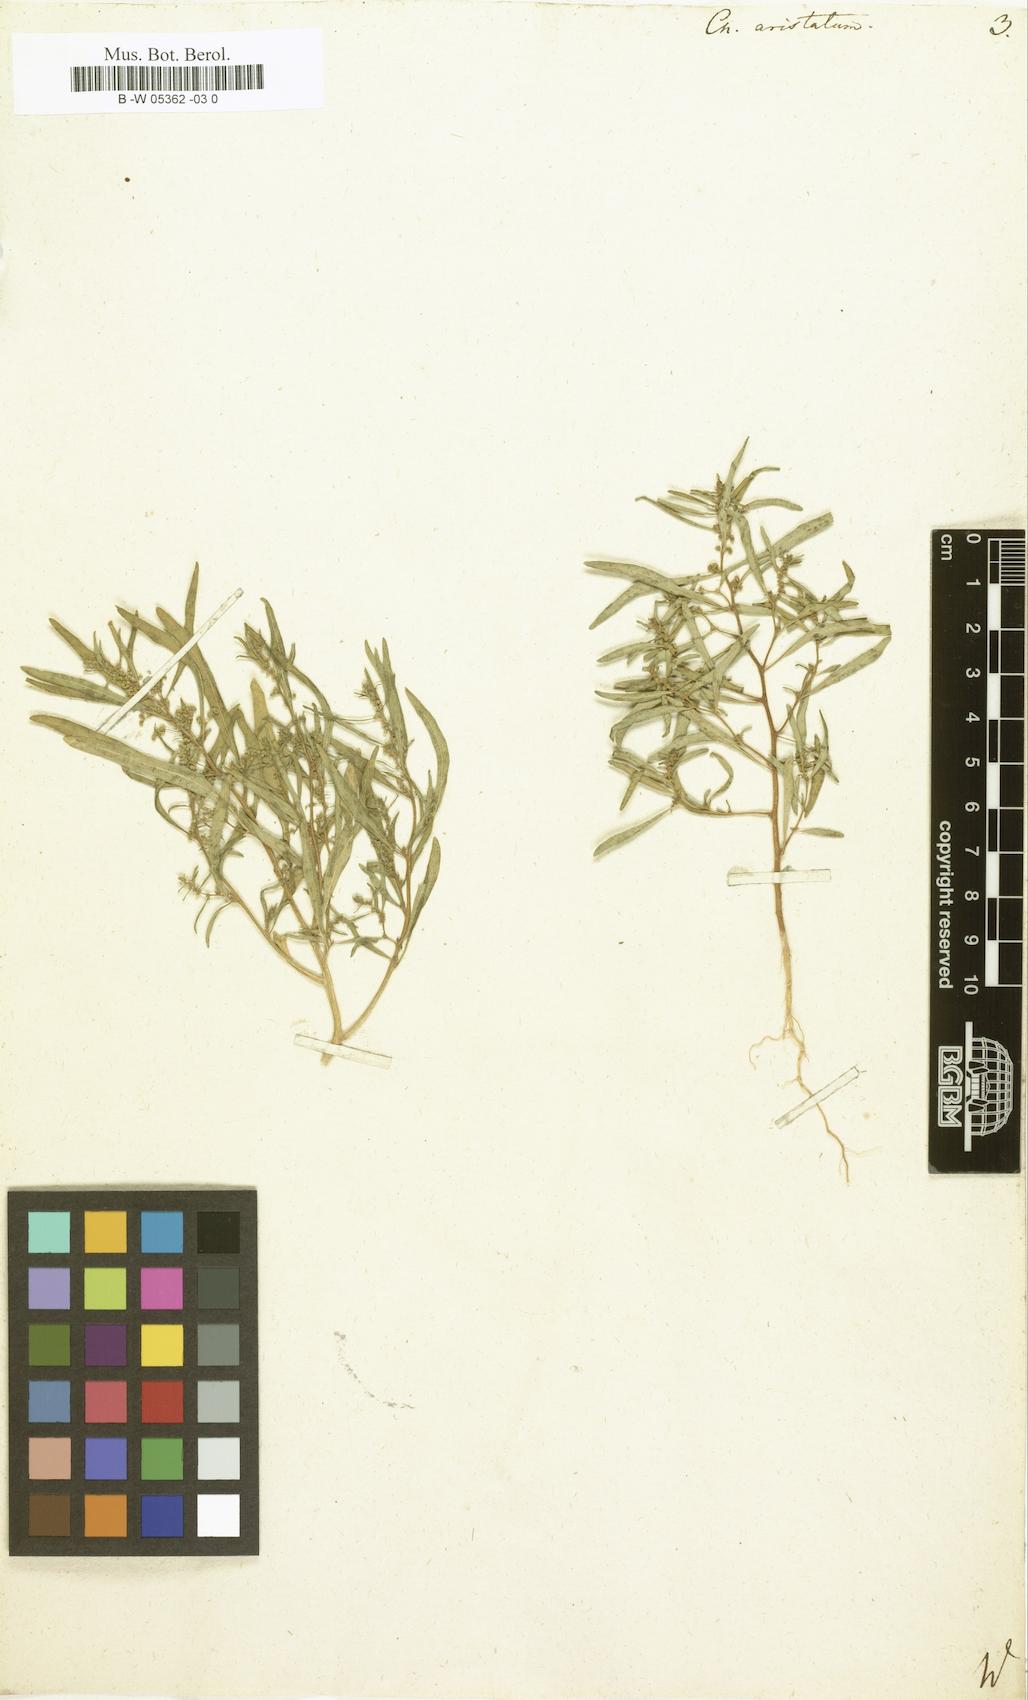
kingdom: Plantae
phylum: Tracheophyta
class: Magnoliopsida
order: Caryophyllales
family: Amaranthaceae
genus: Teloxys
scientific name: Teloxys aristata
